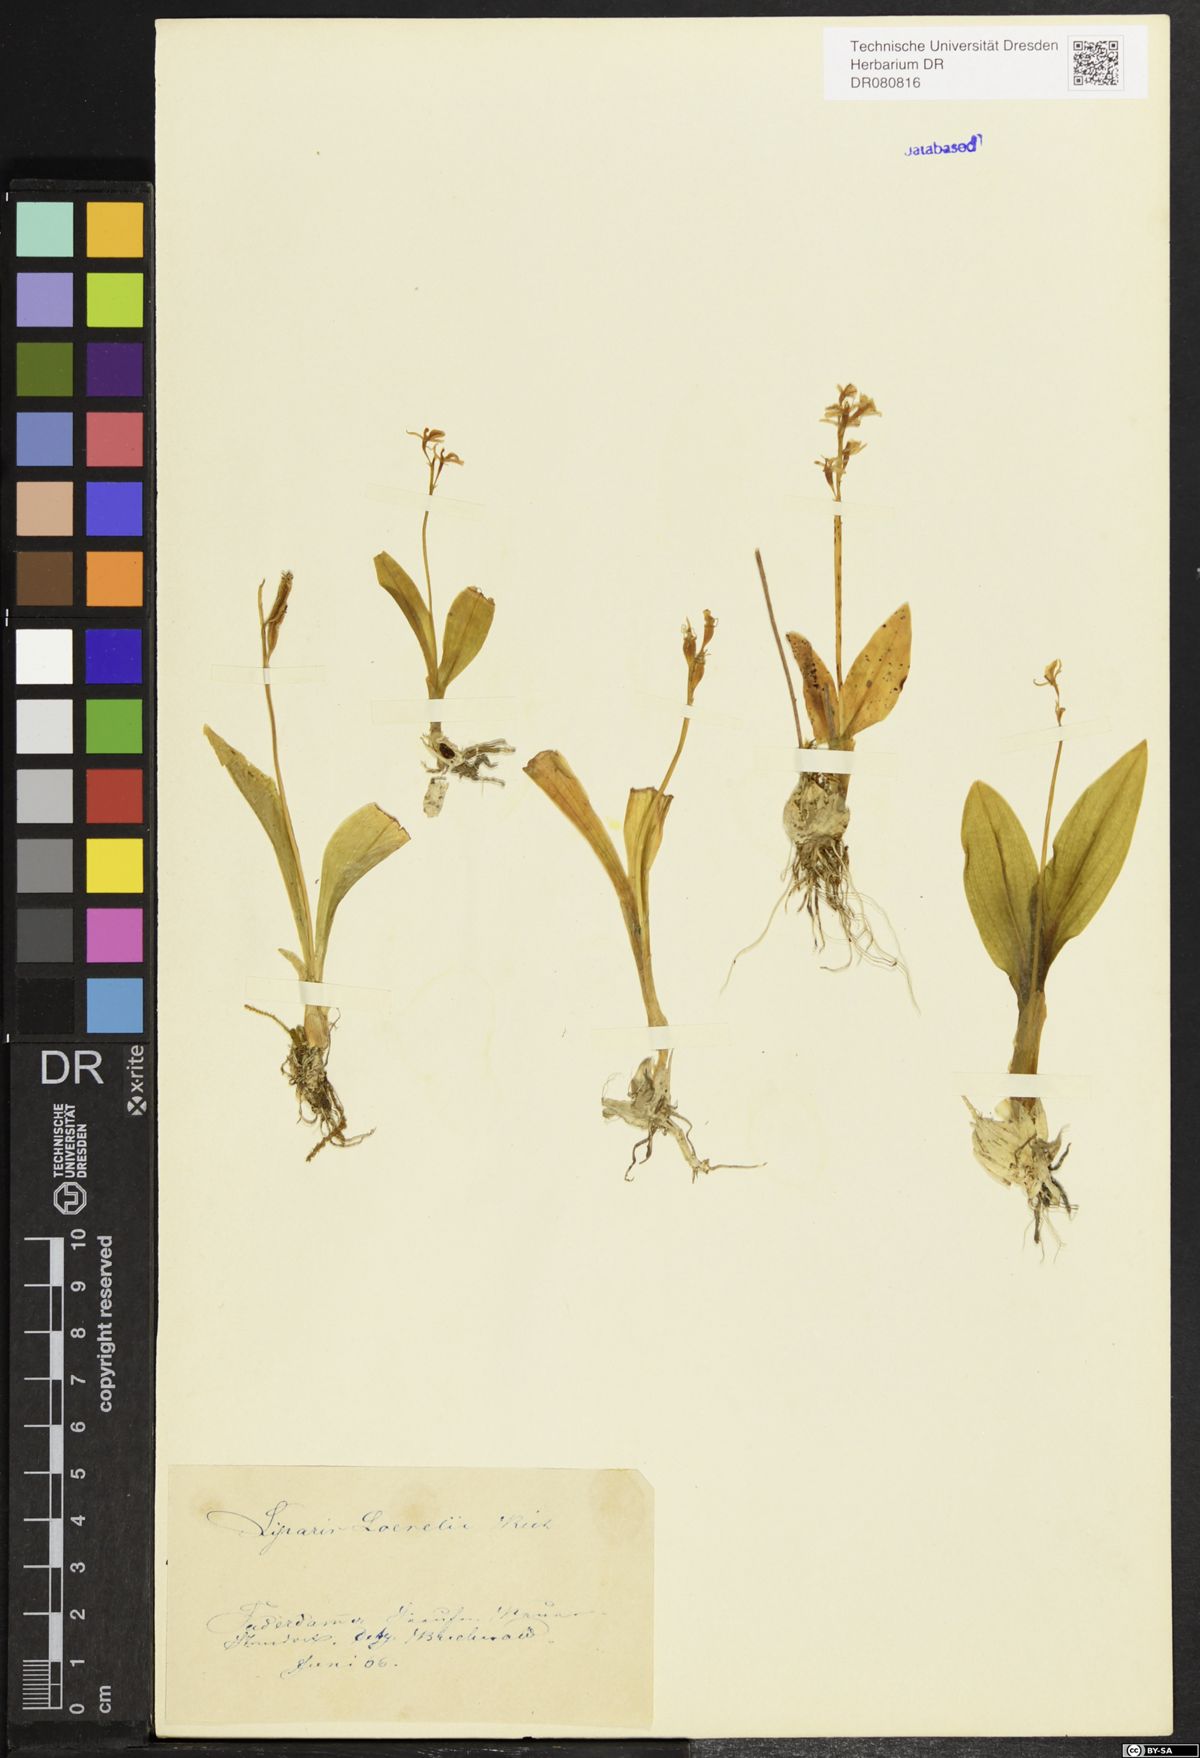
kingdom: Animalia
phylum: Arthropoda
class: Insecta
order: Coleoptera
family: Curculionidae
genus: Liparis
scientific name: Liparis loeselii
